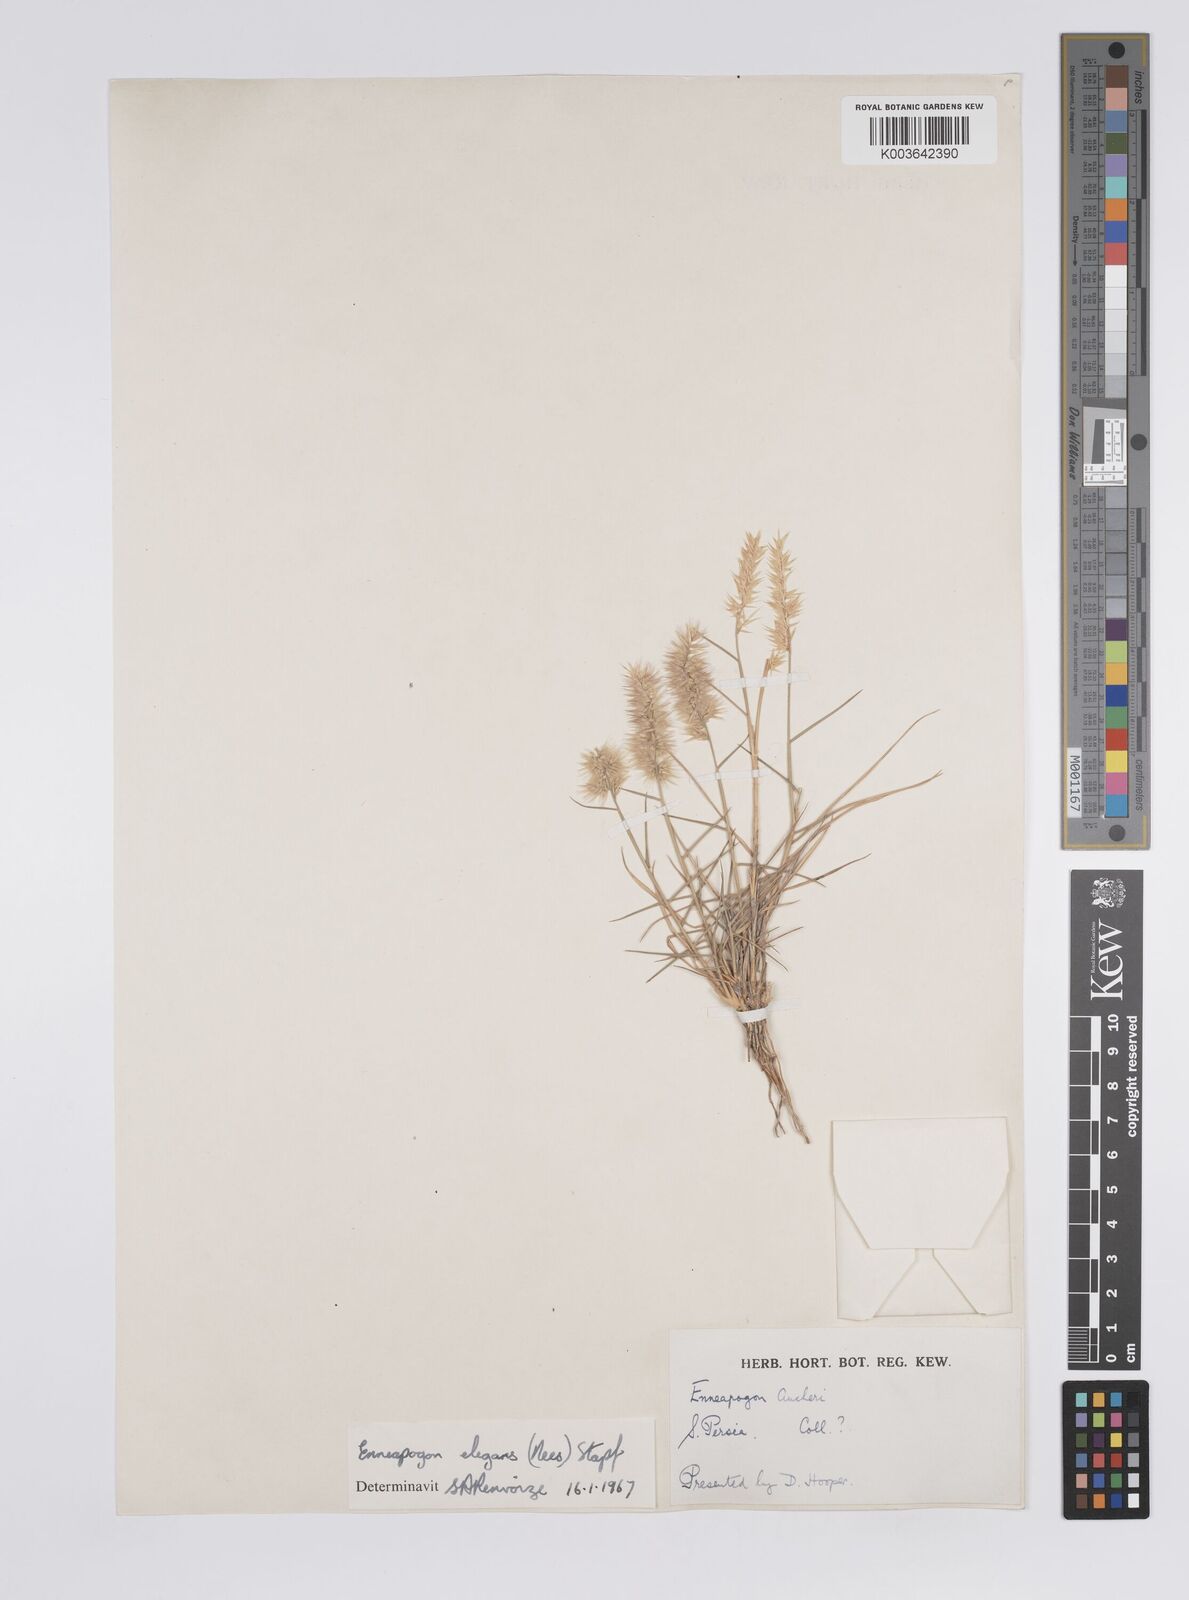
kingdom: Plantae
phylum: Tracheophyta
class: Liliopsida
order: Poales
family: Poaceae
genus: Enneapogon
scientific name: Enneapogon persicus
